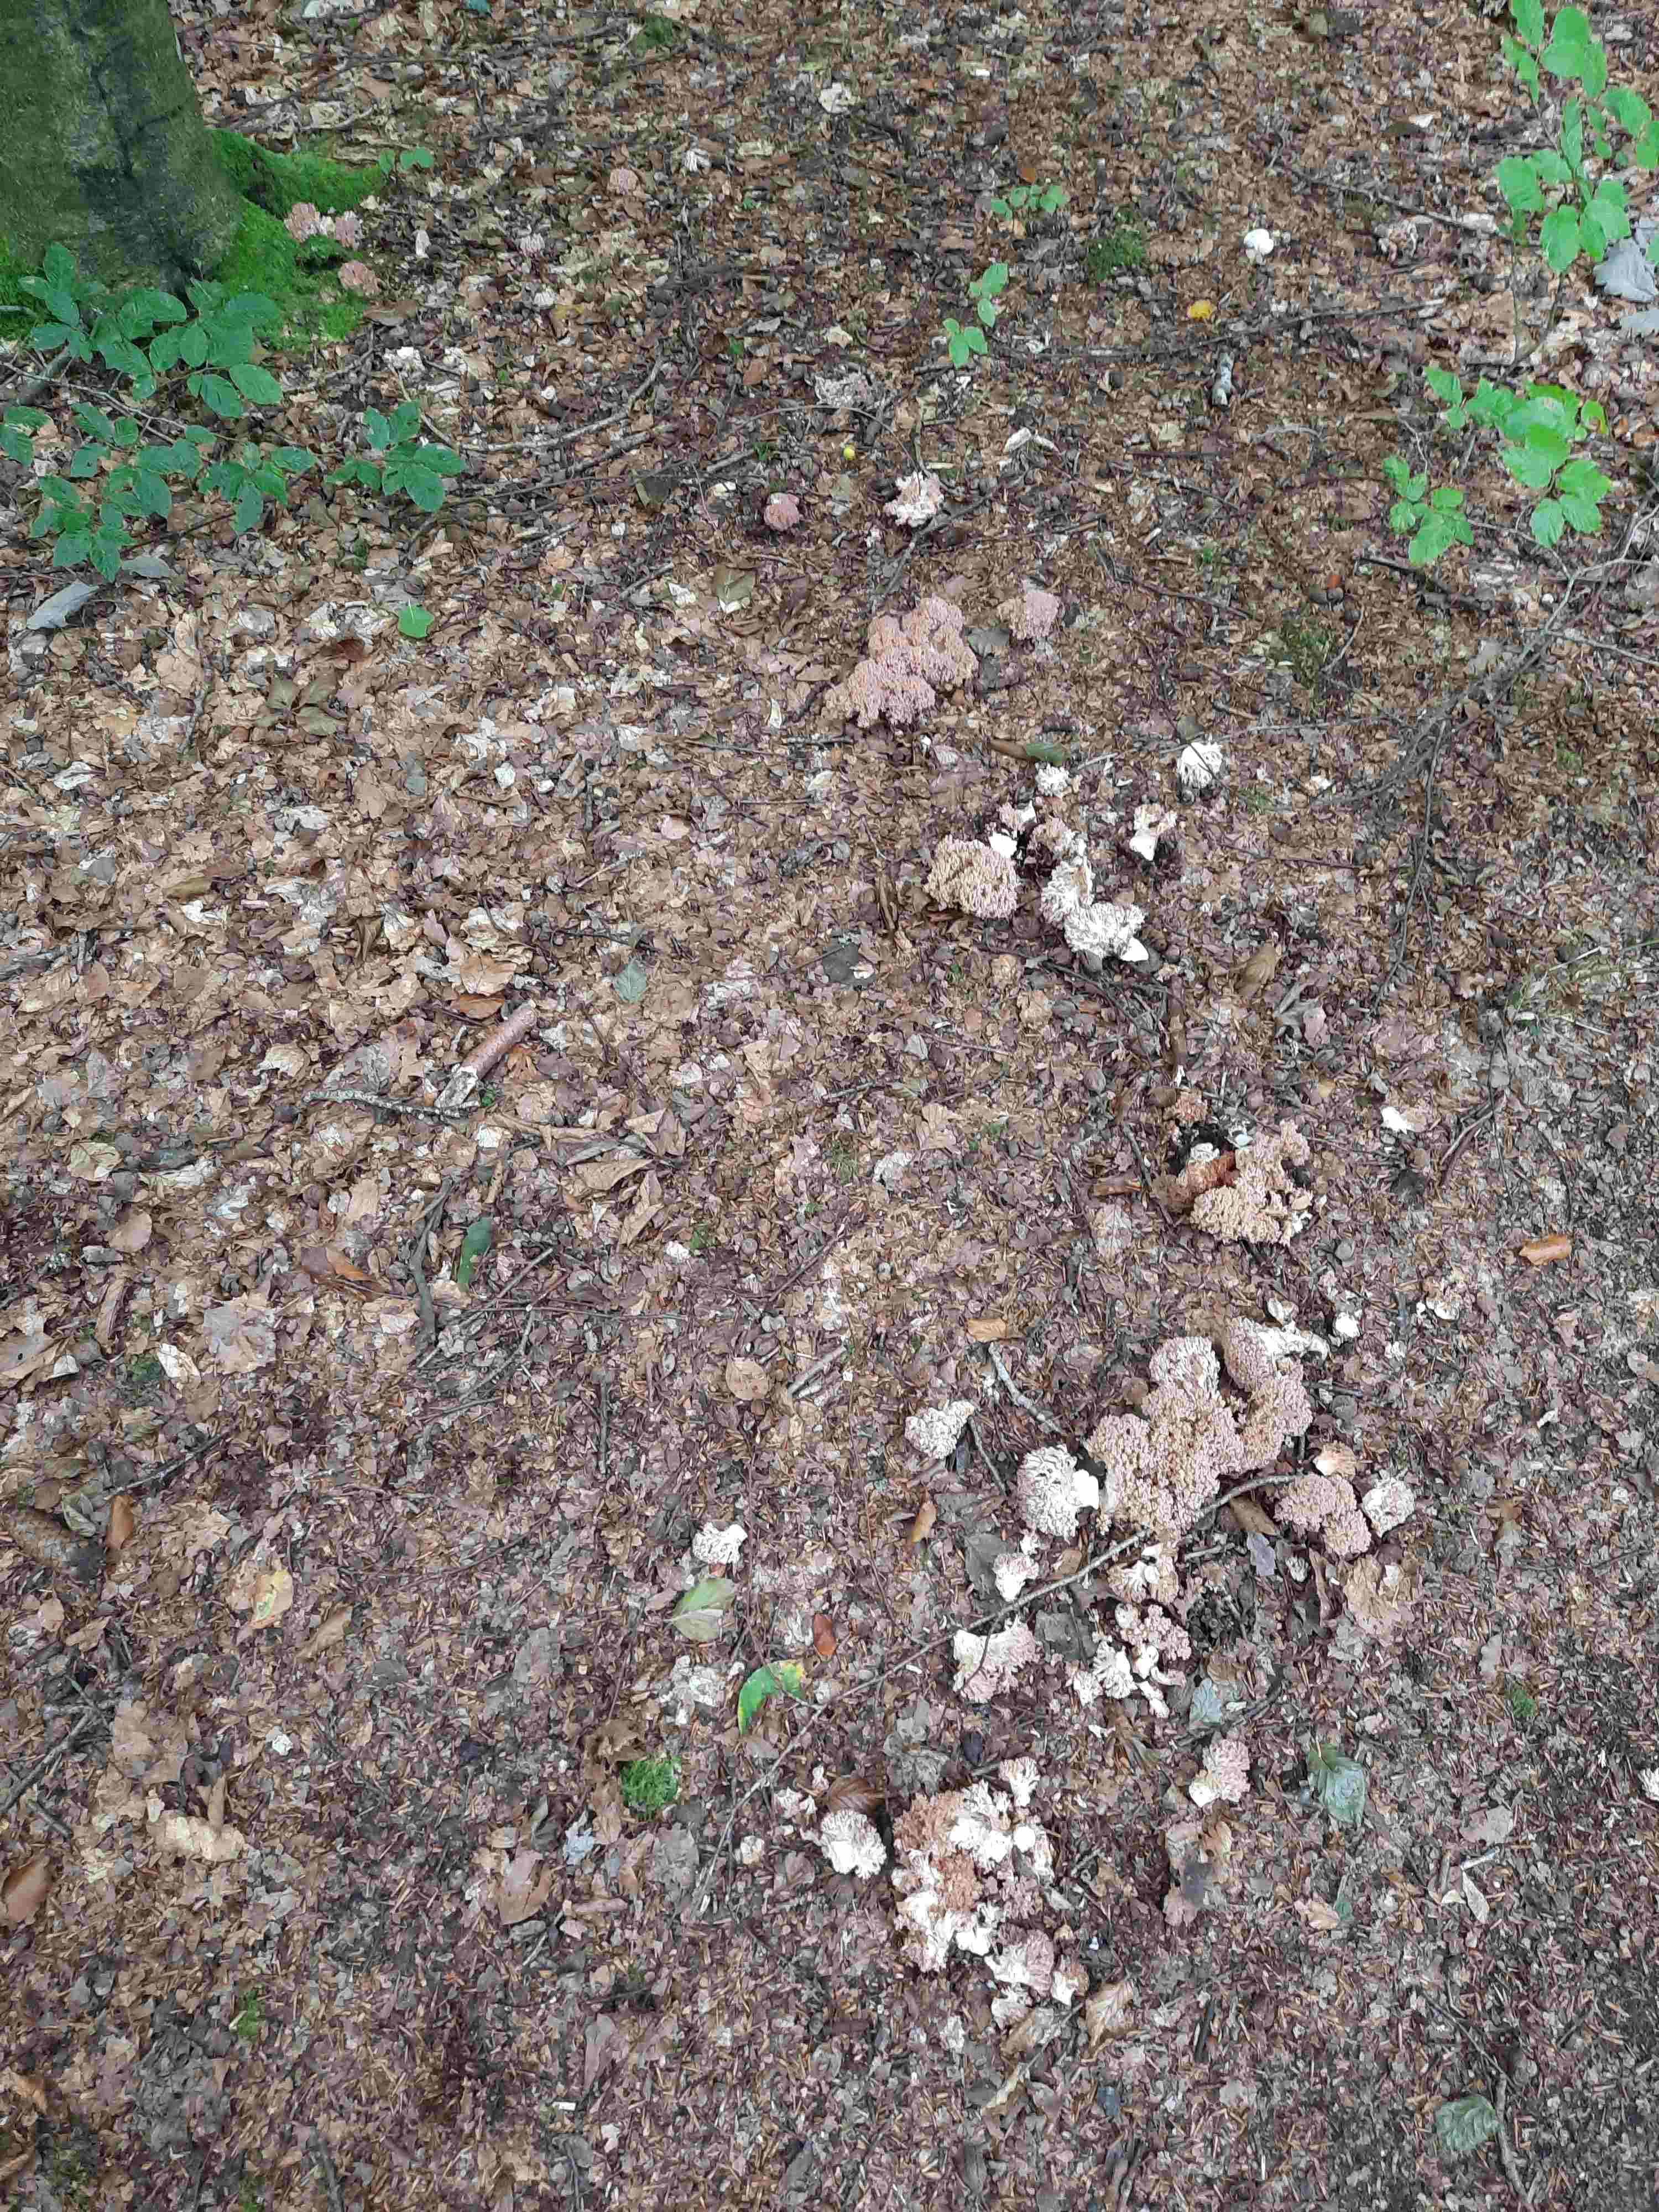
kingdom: Fungi
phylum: Basidiomycota
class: Agaricomycetes
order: Gomphales
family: Gomphaceae
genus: Ramaria
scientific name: Ramaria botrytis
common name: drue-koralsvamp
